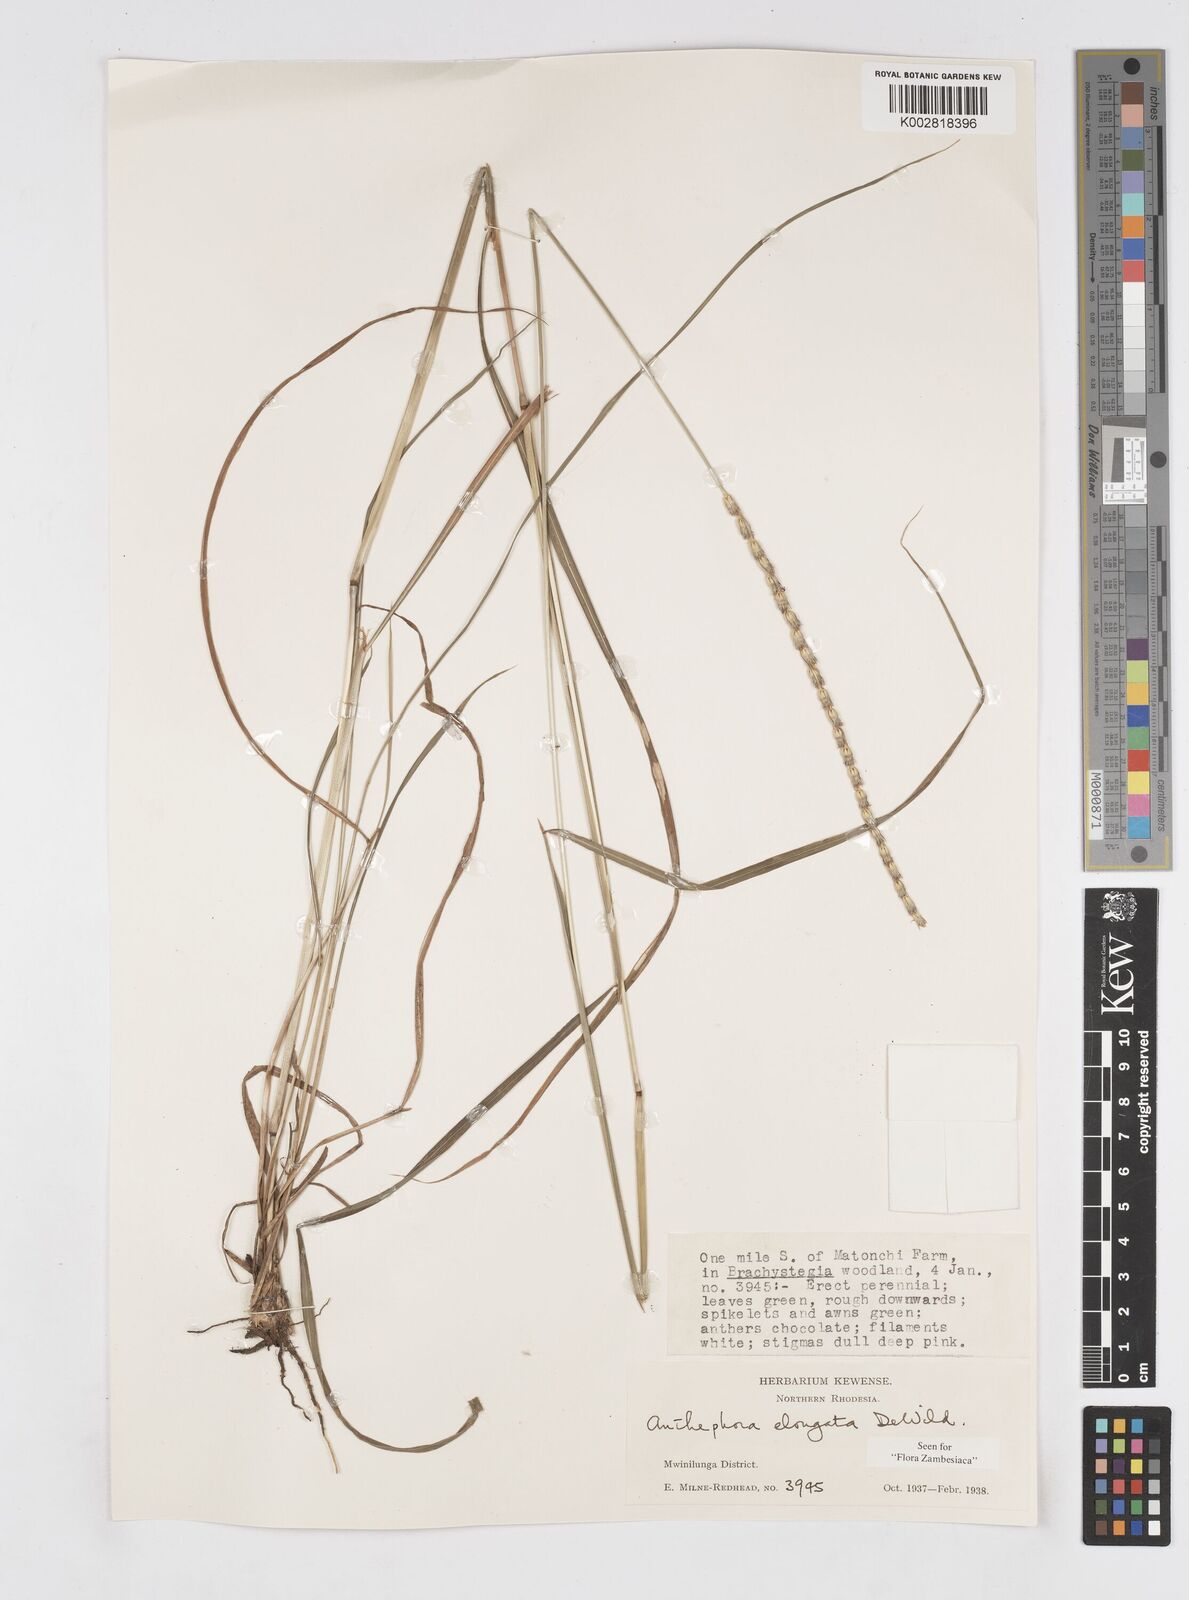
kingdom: Plantae
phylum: Tracheophyta
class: Liliopsida
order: Poales
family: Poaceae
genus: Anthephora
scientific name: Anthephora elongata
